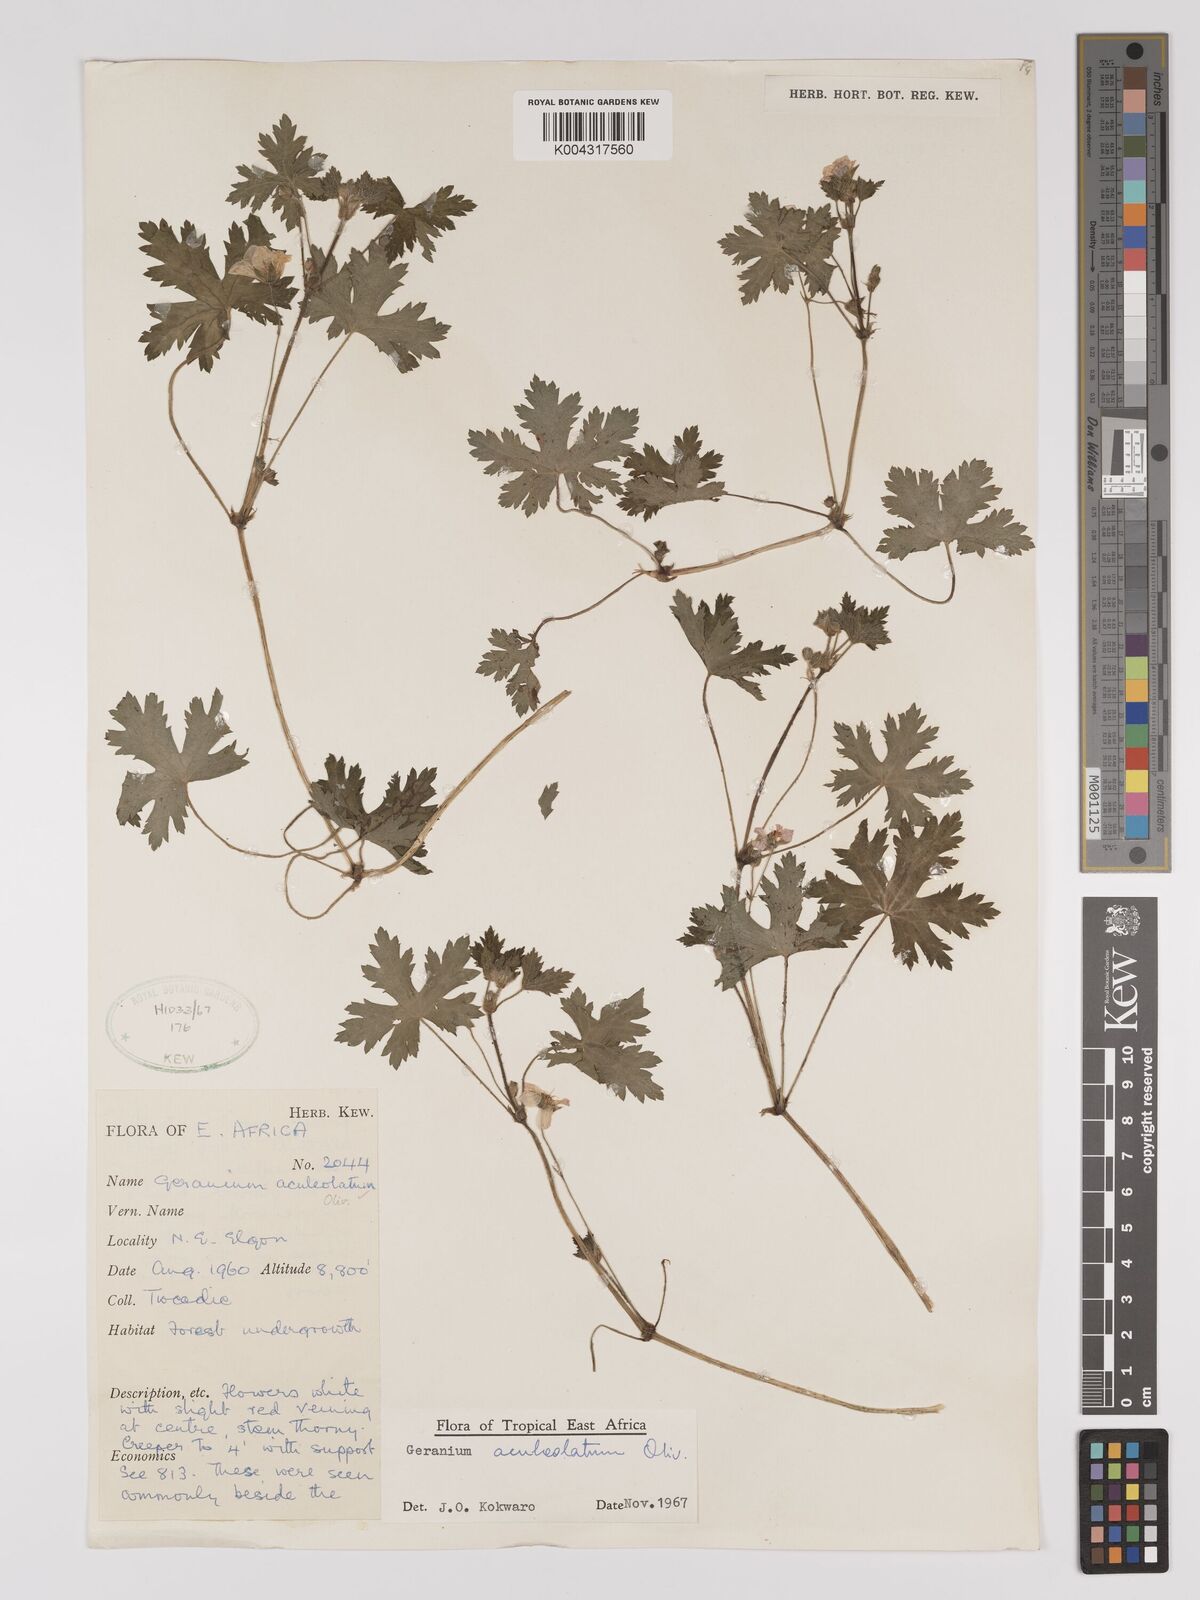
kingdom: Plantae
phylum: Tracheophyta
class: Magnoliopsida
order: Geraniales
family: Geraniaceae
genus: Geranium
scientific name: Geranium aculeolatum
